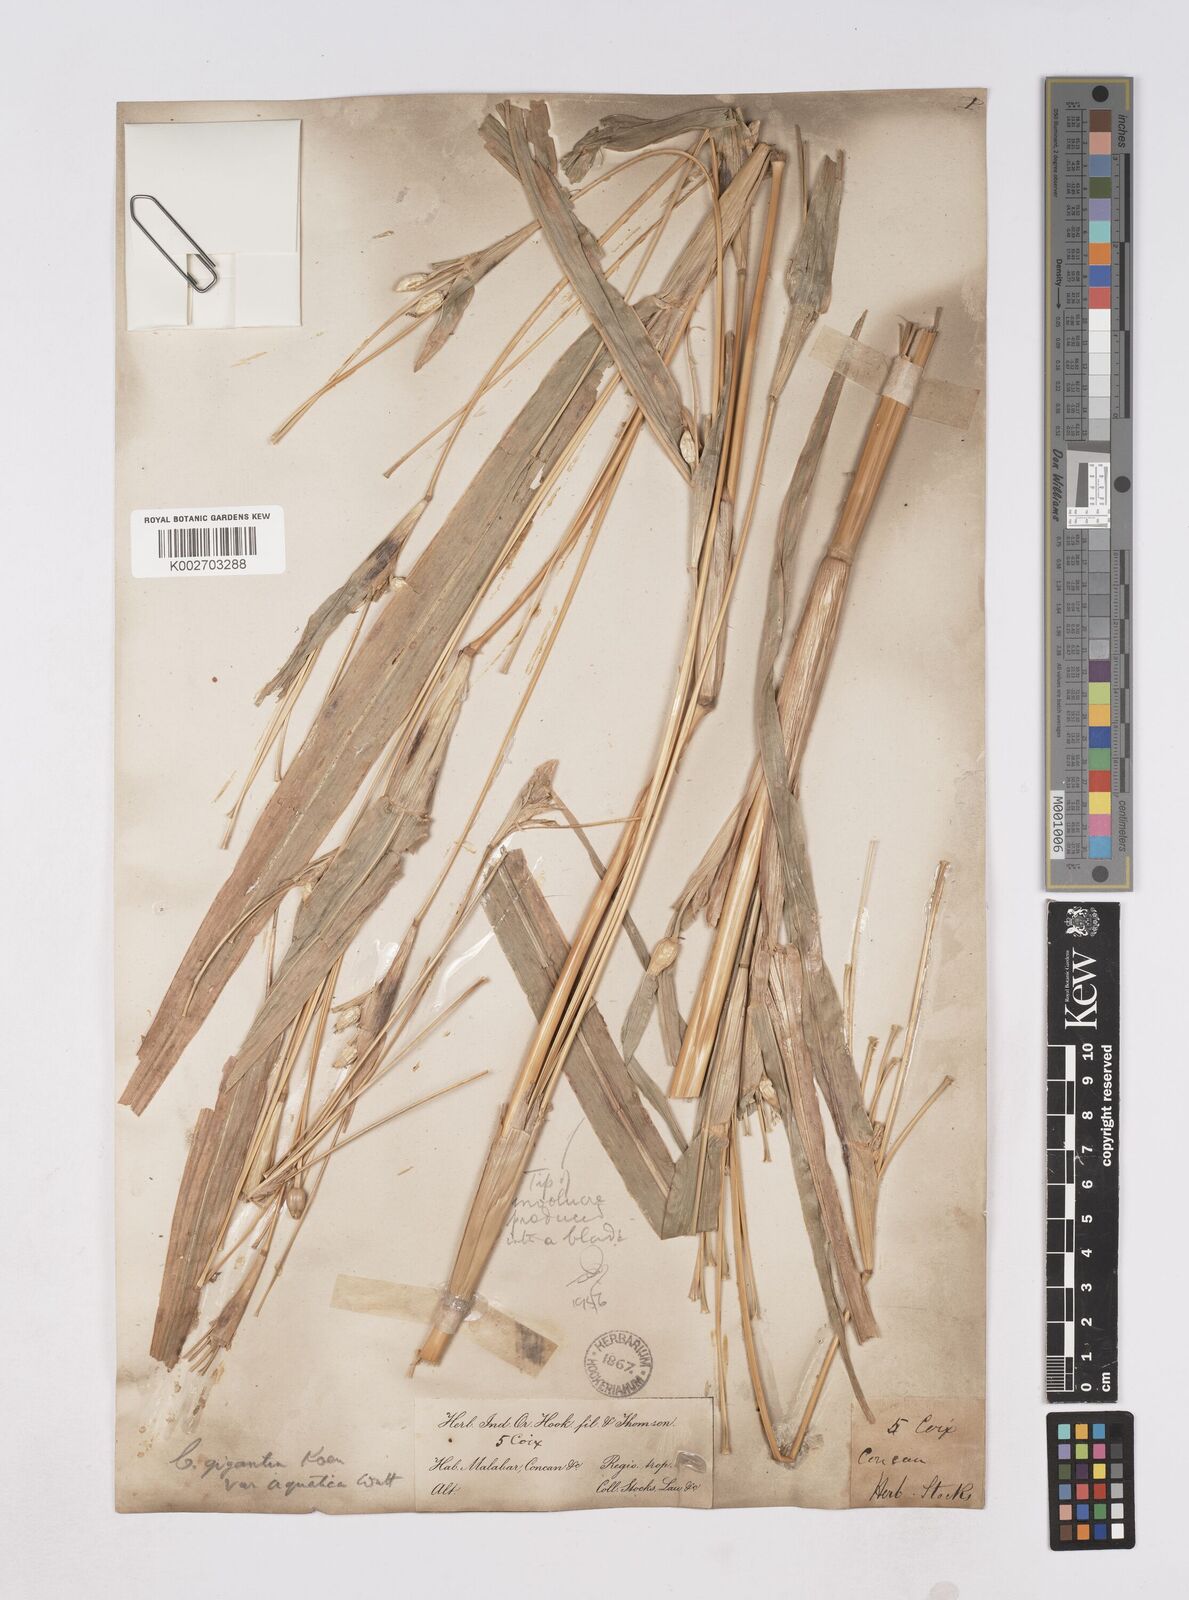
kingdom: Plantae
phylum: Tracheophyta
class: Liliopsida
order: Poales
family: Poaceae
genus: Coix
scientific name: Coix aquatica
